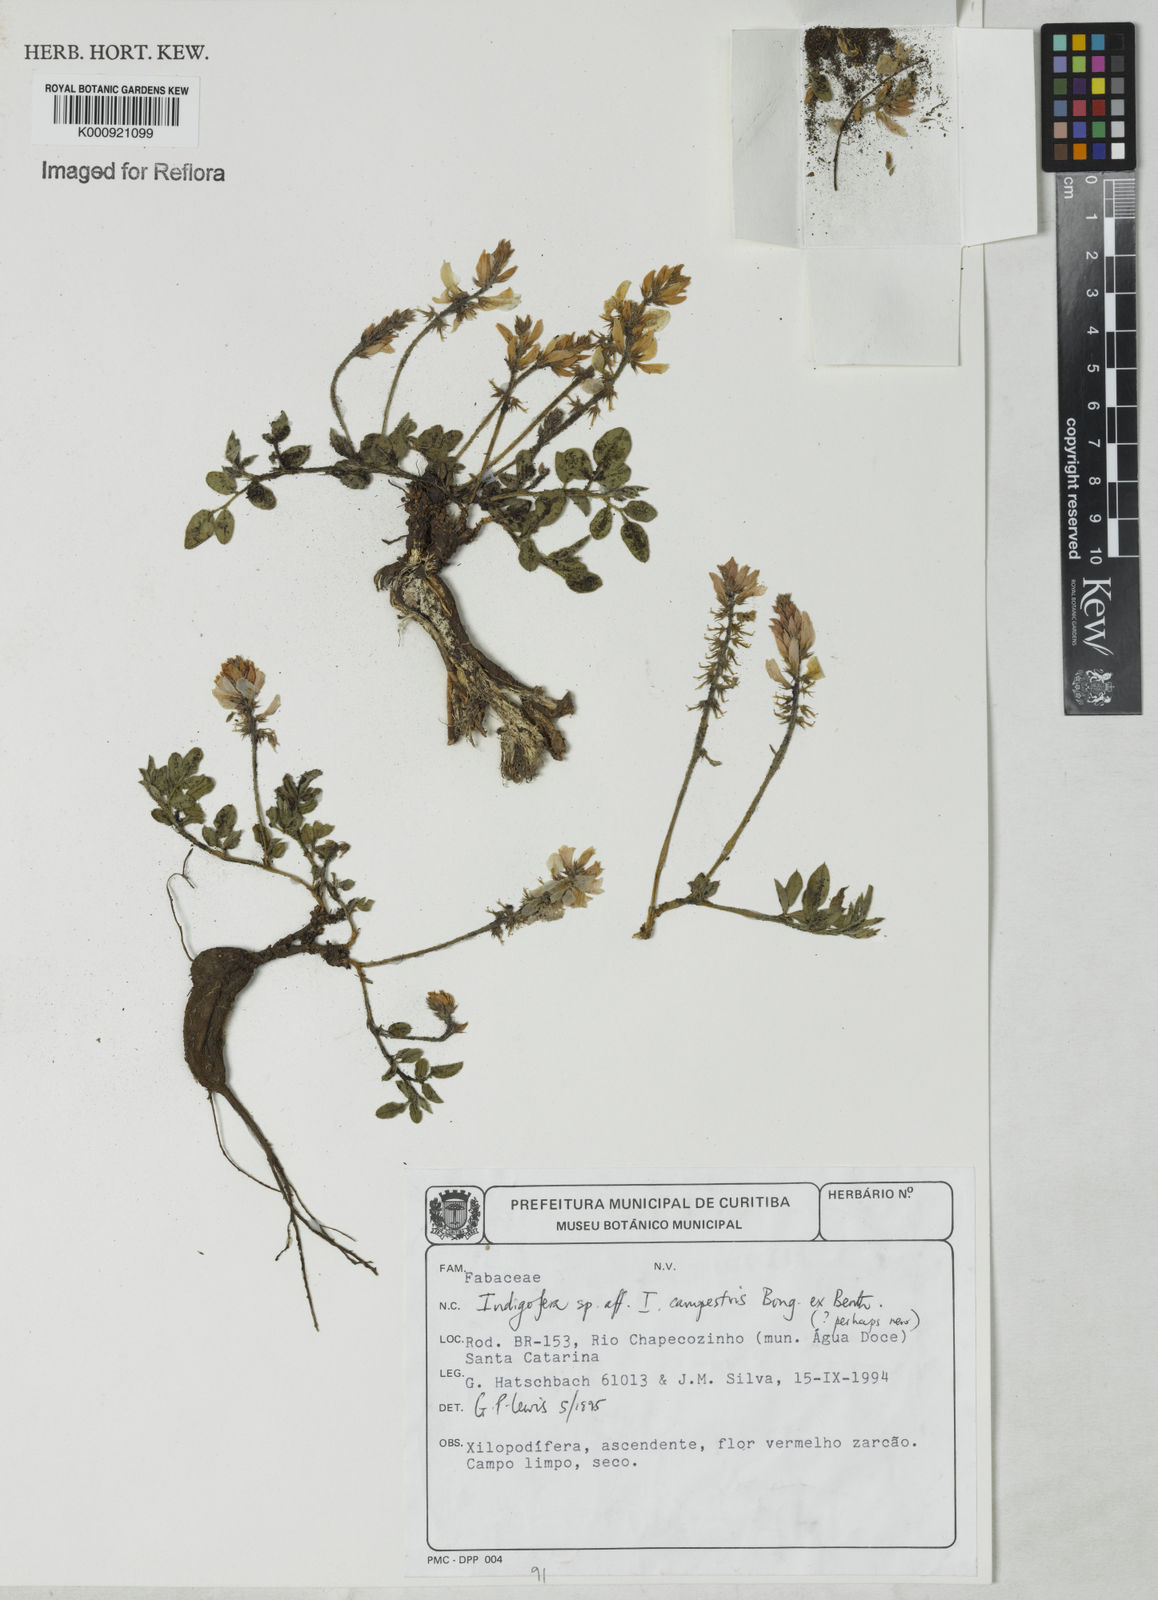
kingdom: Plantae
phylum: Tracheophyta
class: Magnoliopsida
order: Fabales
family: Fabaceae
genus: Indigofera
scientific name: Indigofera campestris
